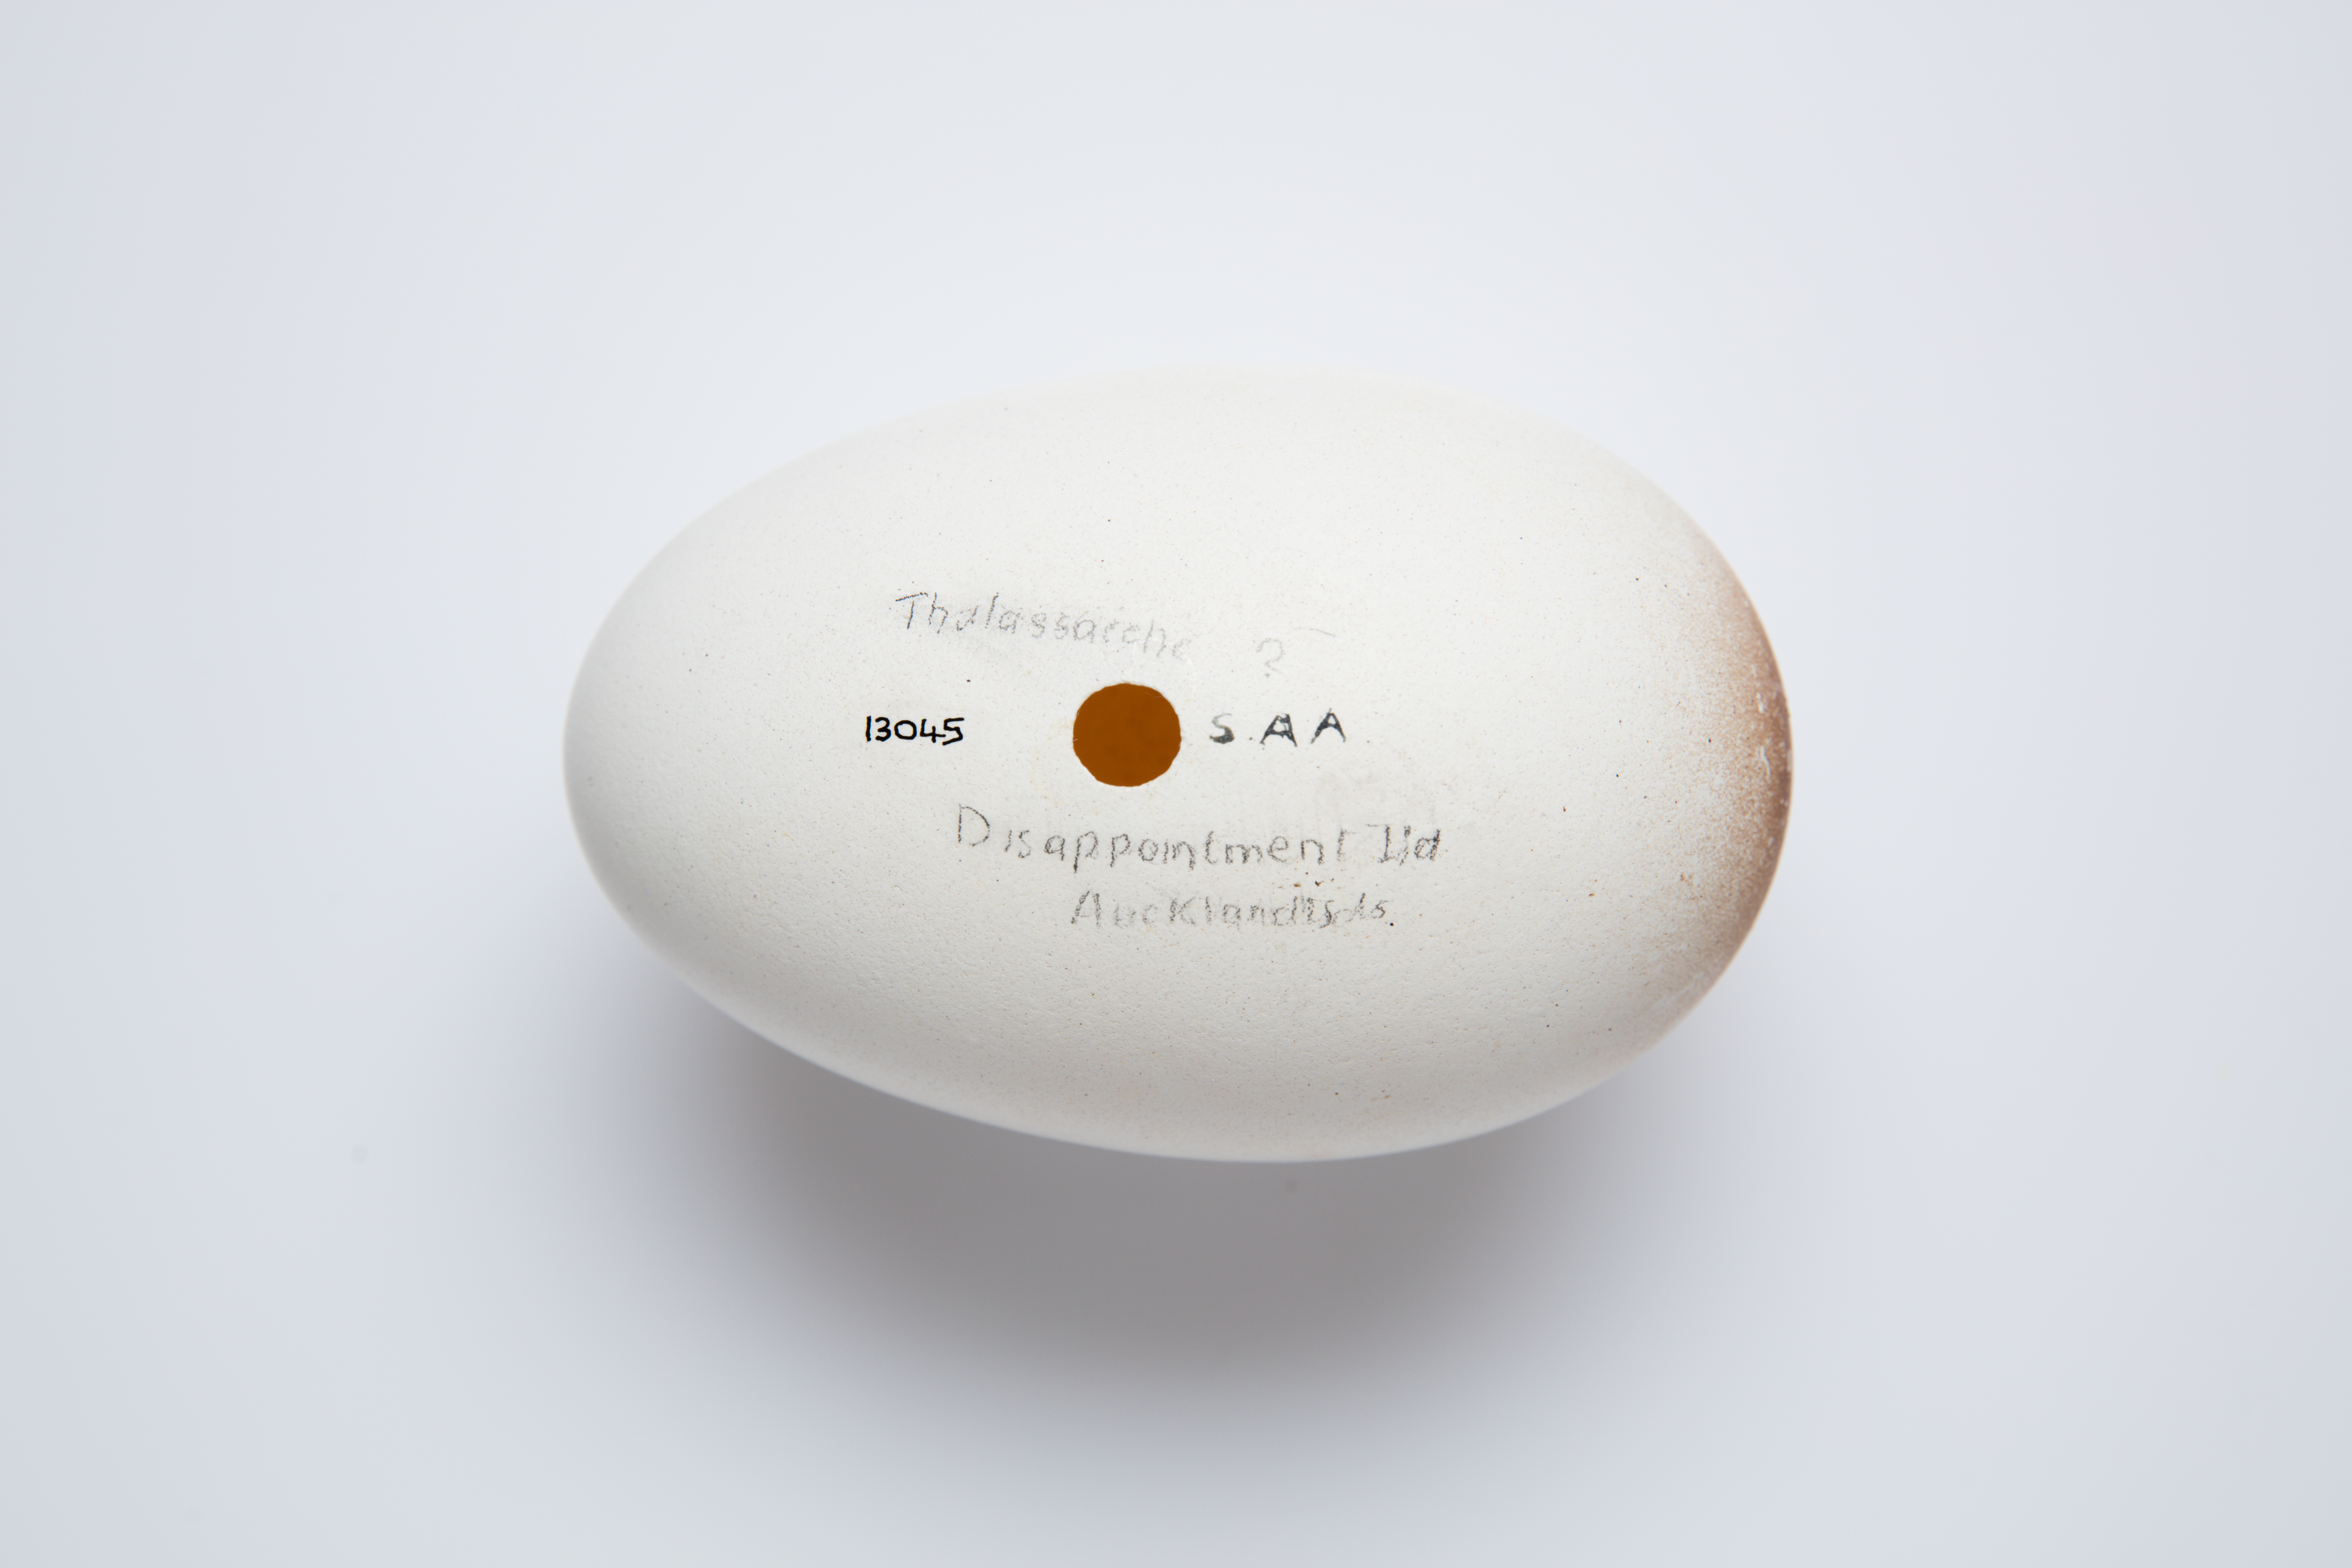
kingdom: Animalia
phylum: Chordata
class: Aves
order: Procellariiformes
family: Diomedeidae
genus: Thalassarche
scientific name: Thalassarche cauta
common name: Shy albatross
